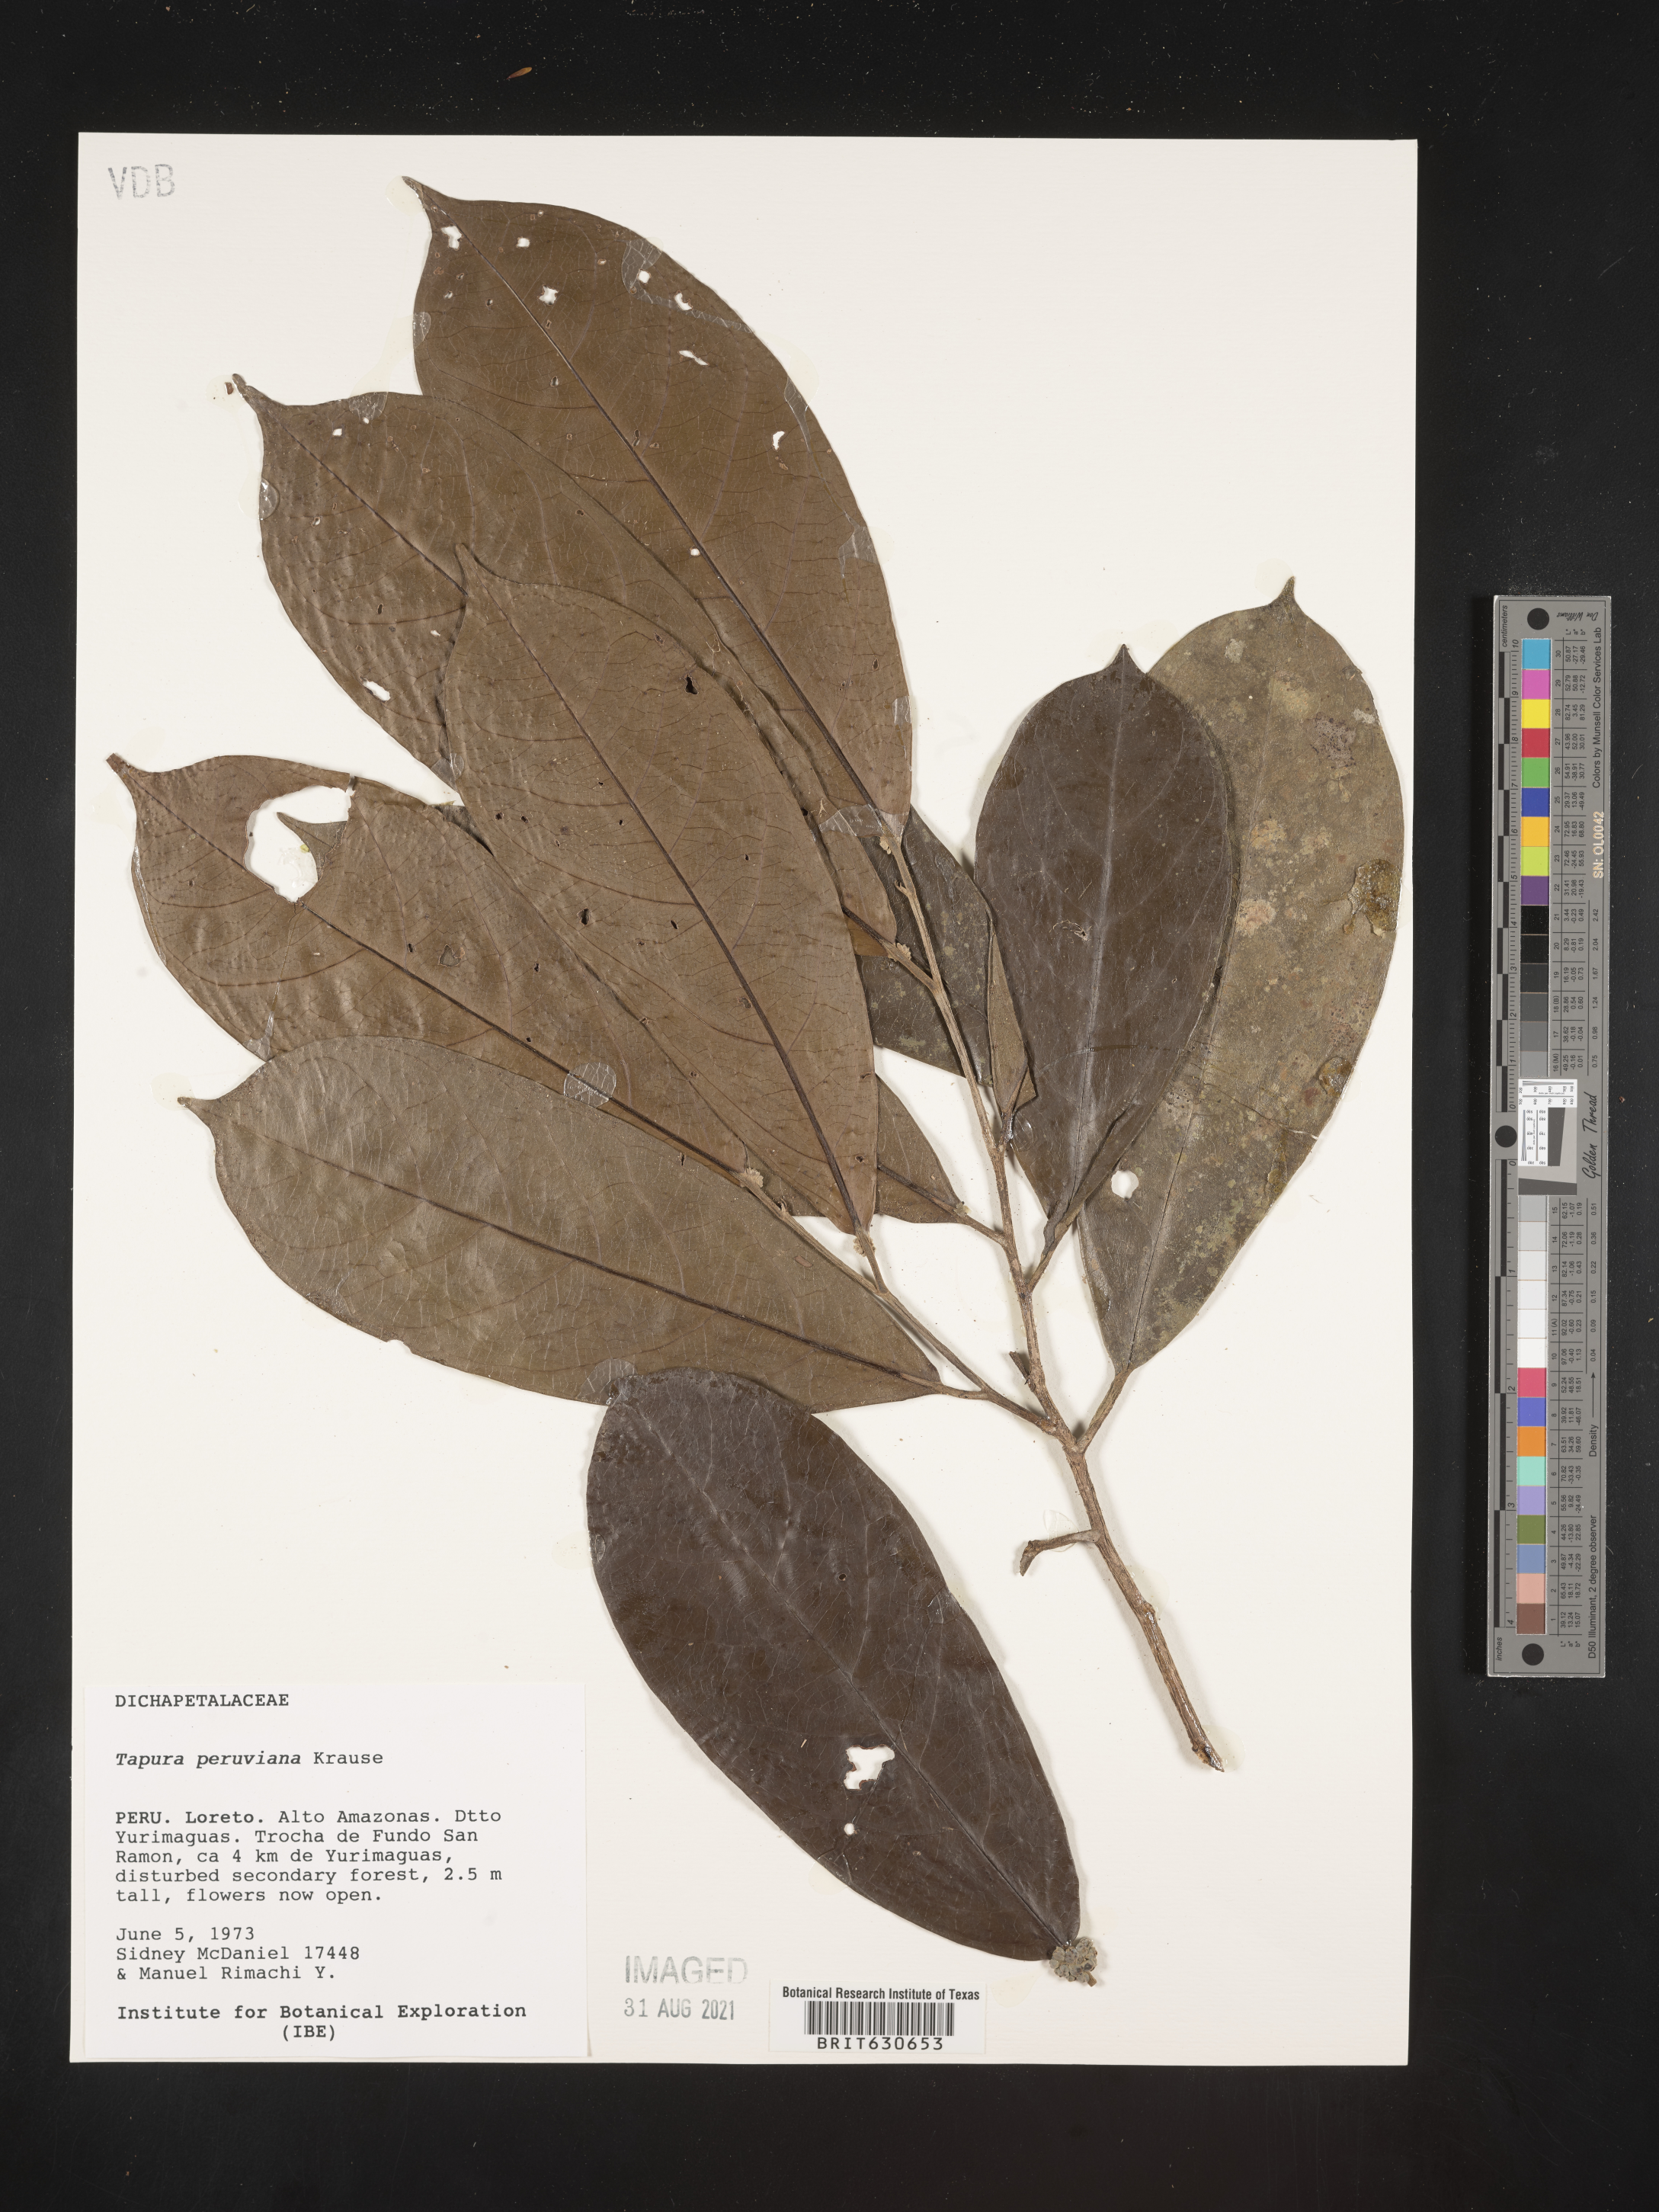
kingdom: Plantae
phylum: Tracheophyta
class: Magnoliopsida
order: Malpighiales
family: Dichapetalaceae
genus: Tapura
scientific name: Tapura
